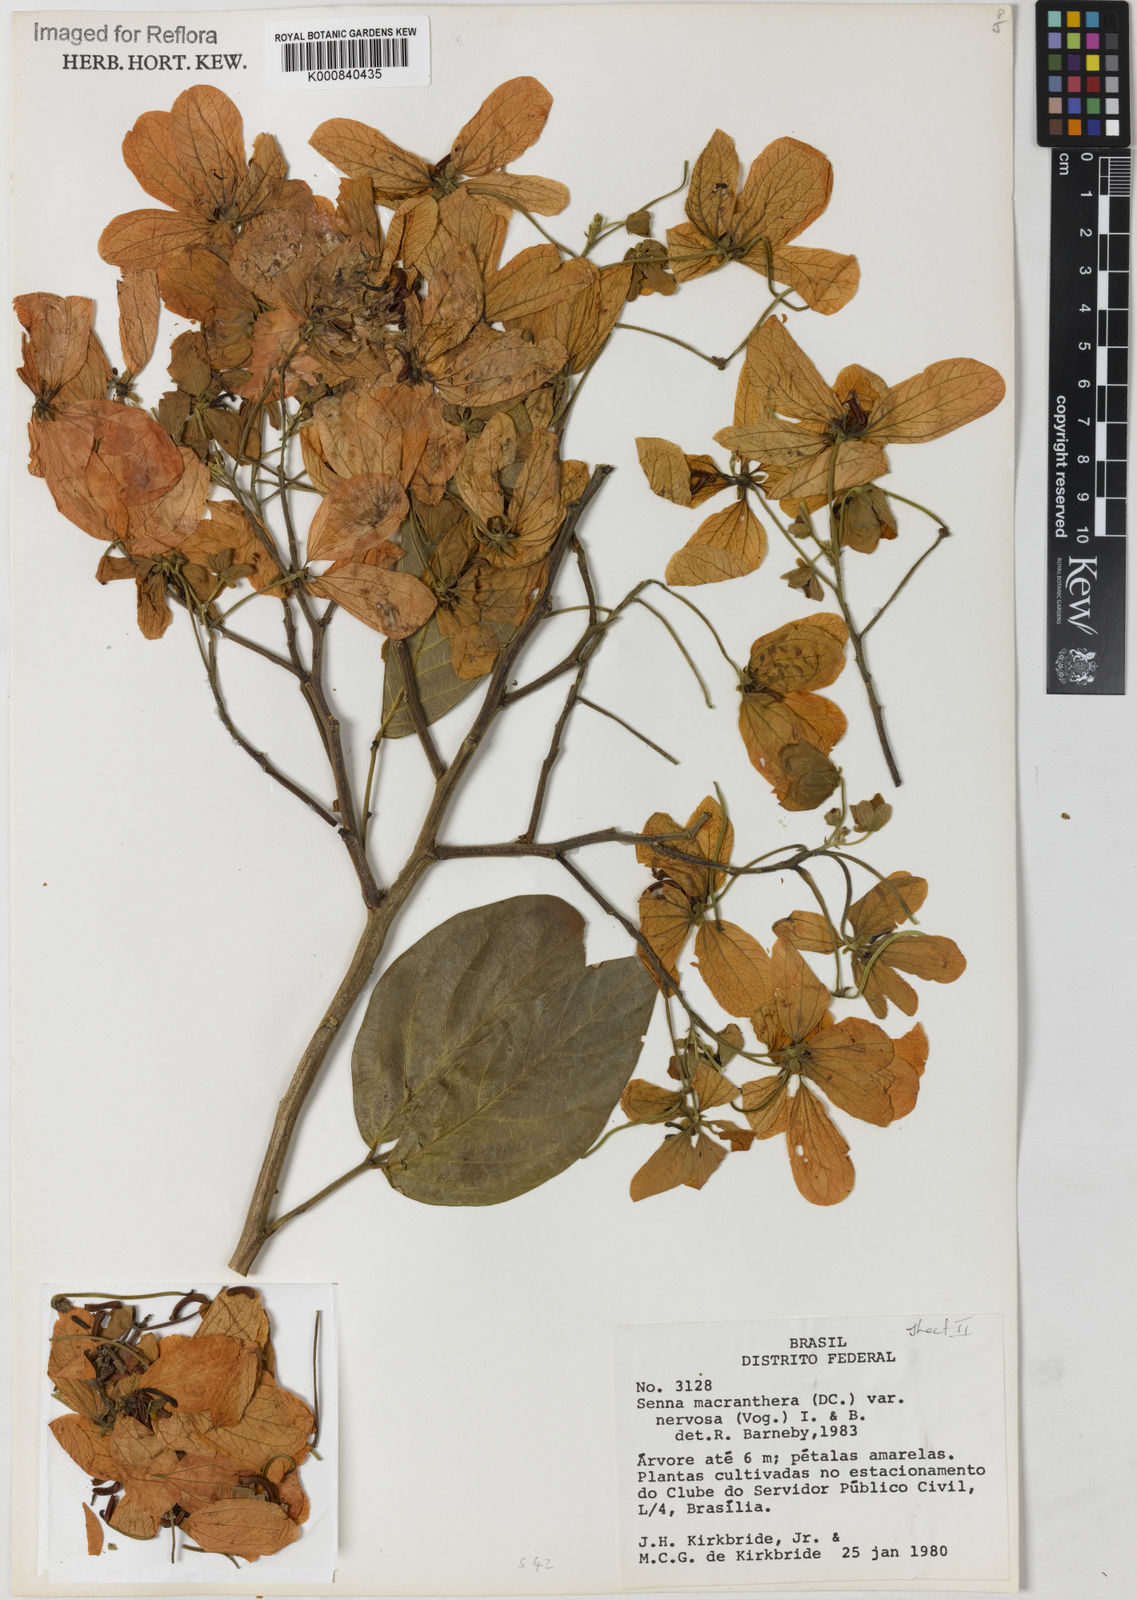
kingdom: Plantae
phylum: Tracheophyta
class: Magnoliopsida
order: Fabales
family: Fabaceae
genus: Senna
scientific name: Senna macranthera
